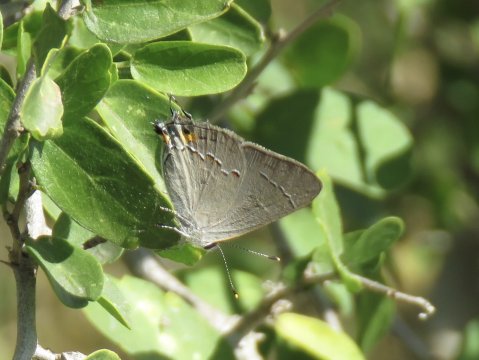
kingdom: Animalia
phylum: Arthropoda
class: Insecta
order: Lepidoptera
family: Lycaenidae
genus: Strymon
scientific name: Strymon melinus
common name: Gray Hairstreak
